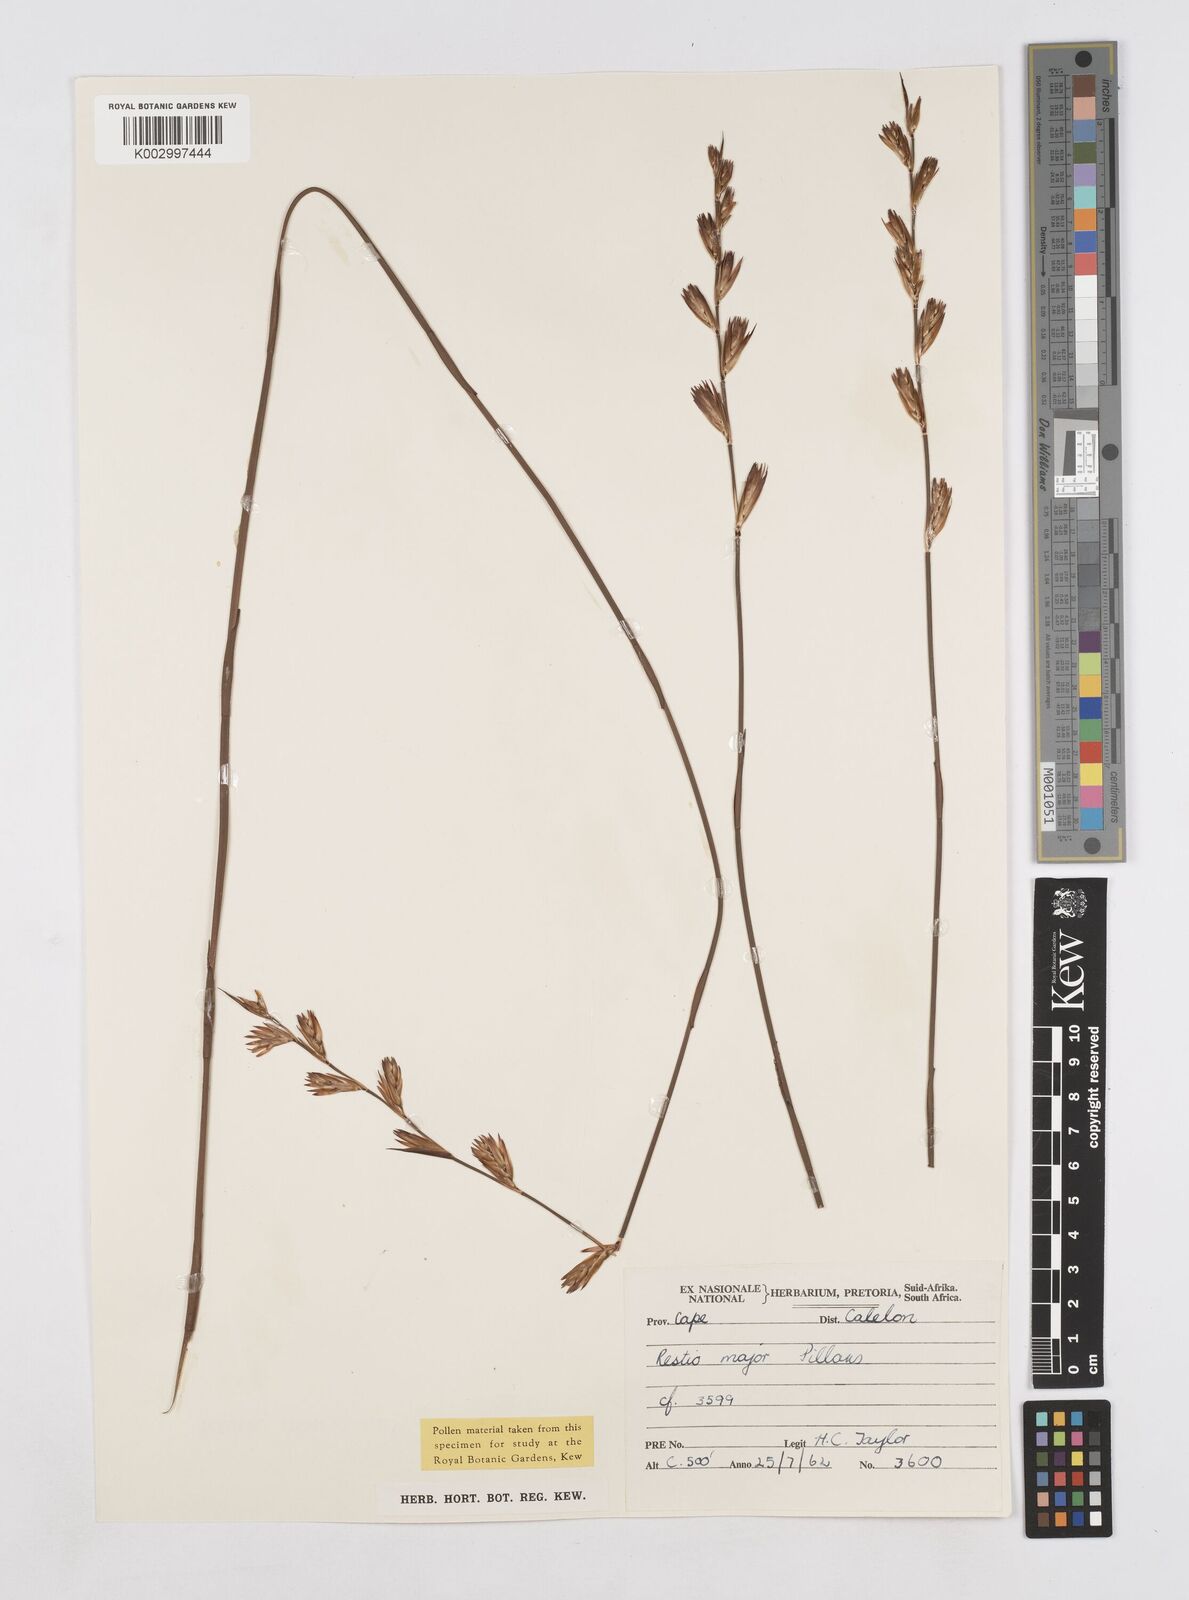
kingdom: Plantae
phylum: Tracheophyta
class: Liliopsida
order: Poales
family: Restionaceae
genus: Platycaulos
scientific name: Platycaulos major
